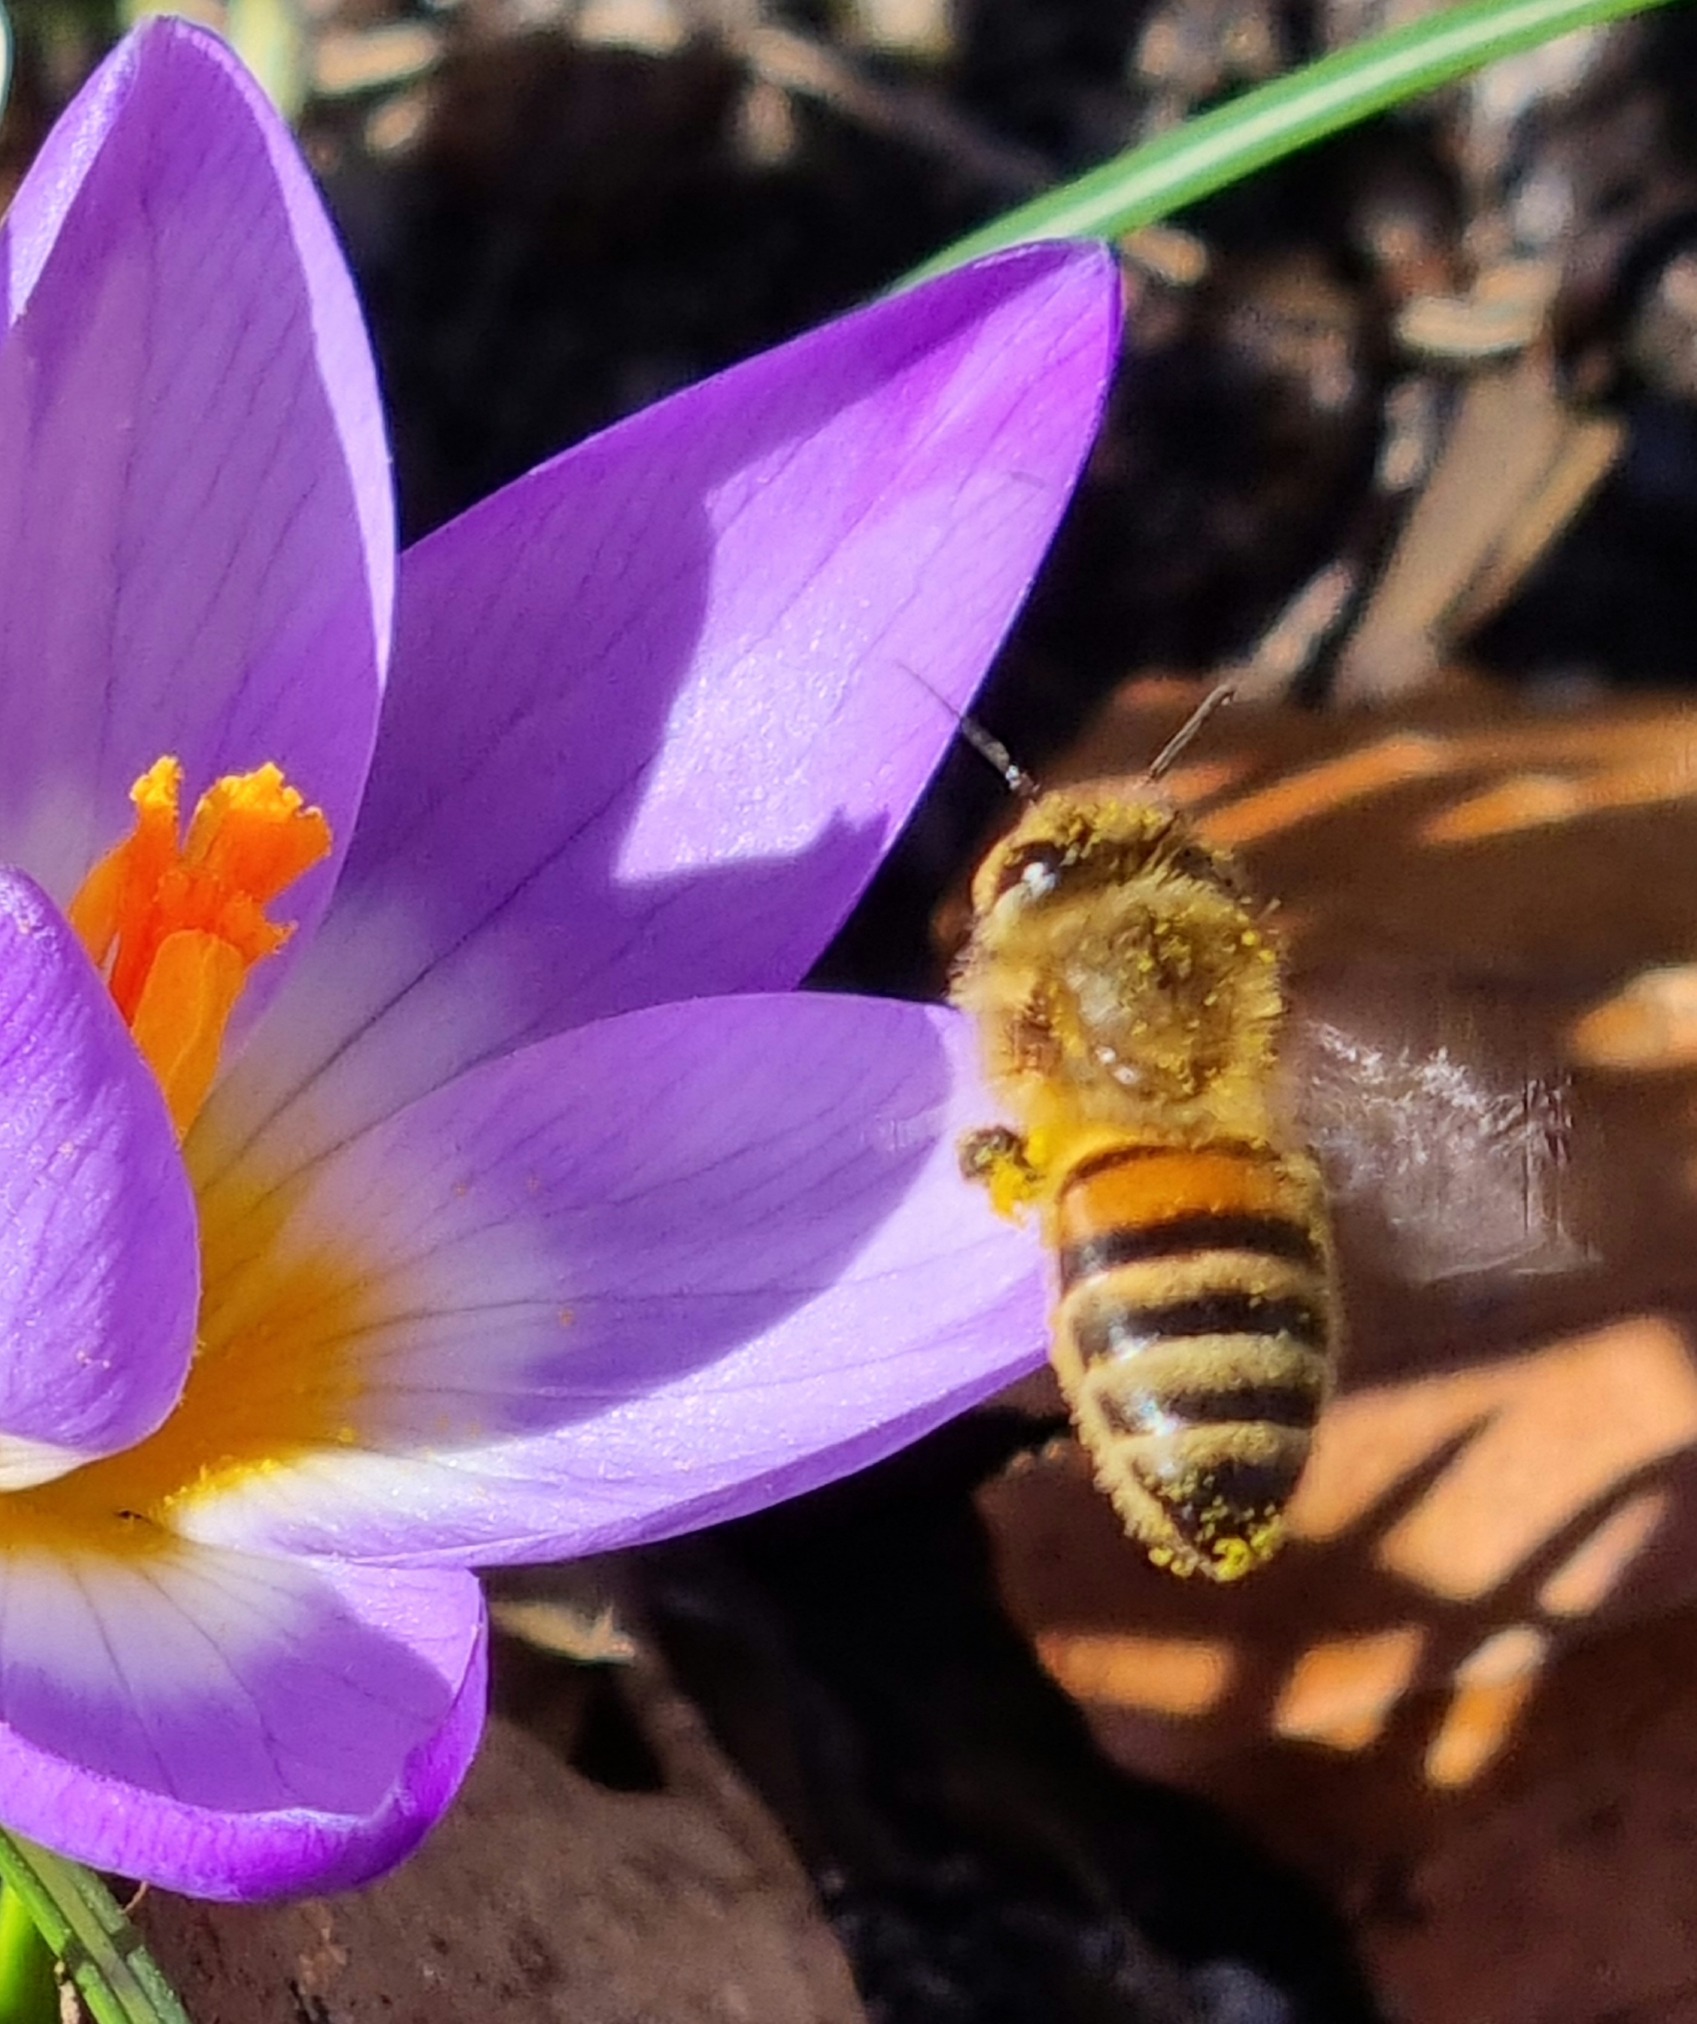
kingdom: Animalia
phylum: Arthropoda
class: Insecta
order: Hymenoptera
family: Apidae
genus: Apis
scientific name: Apis mellifera
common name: Honningbi
